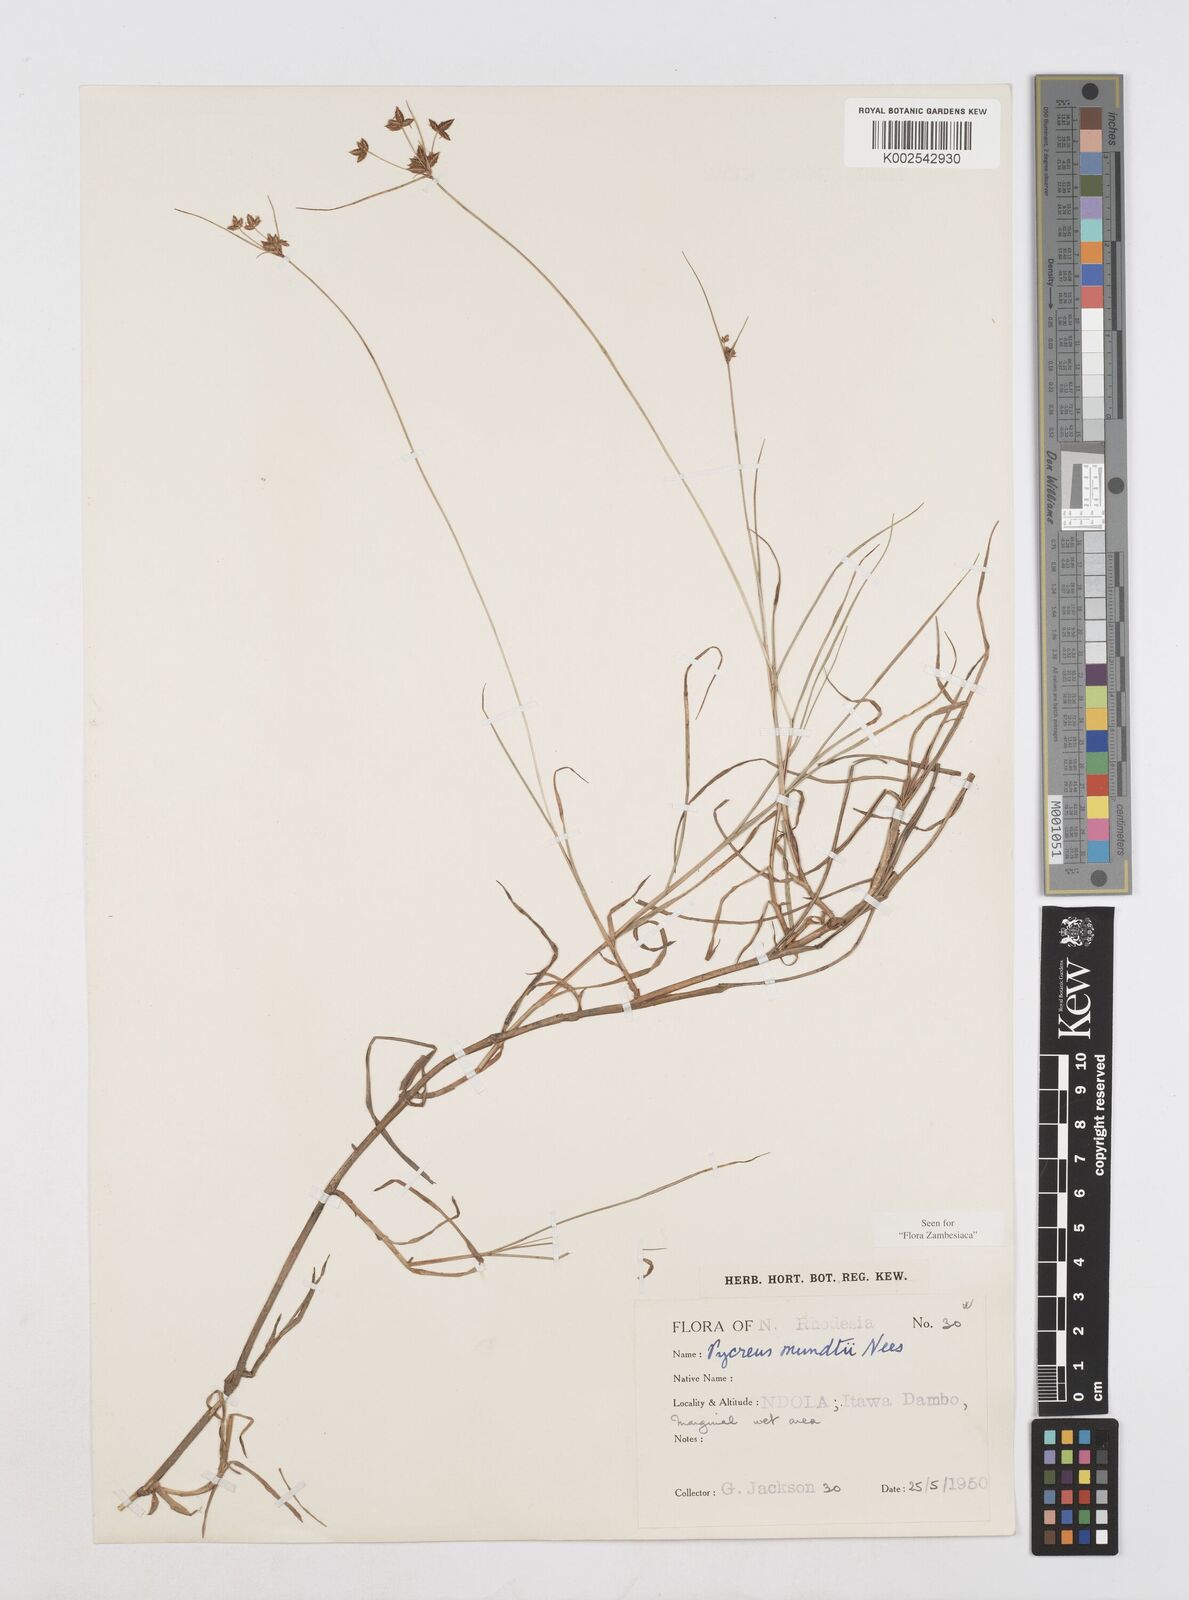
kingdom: Plantae
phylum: Tracheophyta
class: Liliopsida
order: Poales
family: Cyperaceae
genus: Cyperus
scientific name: Cyperus mundii
